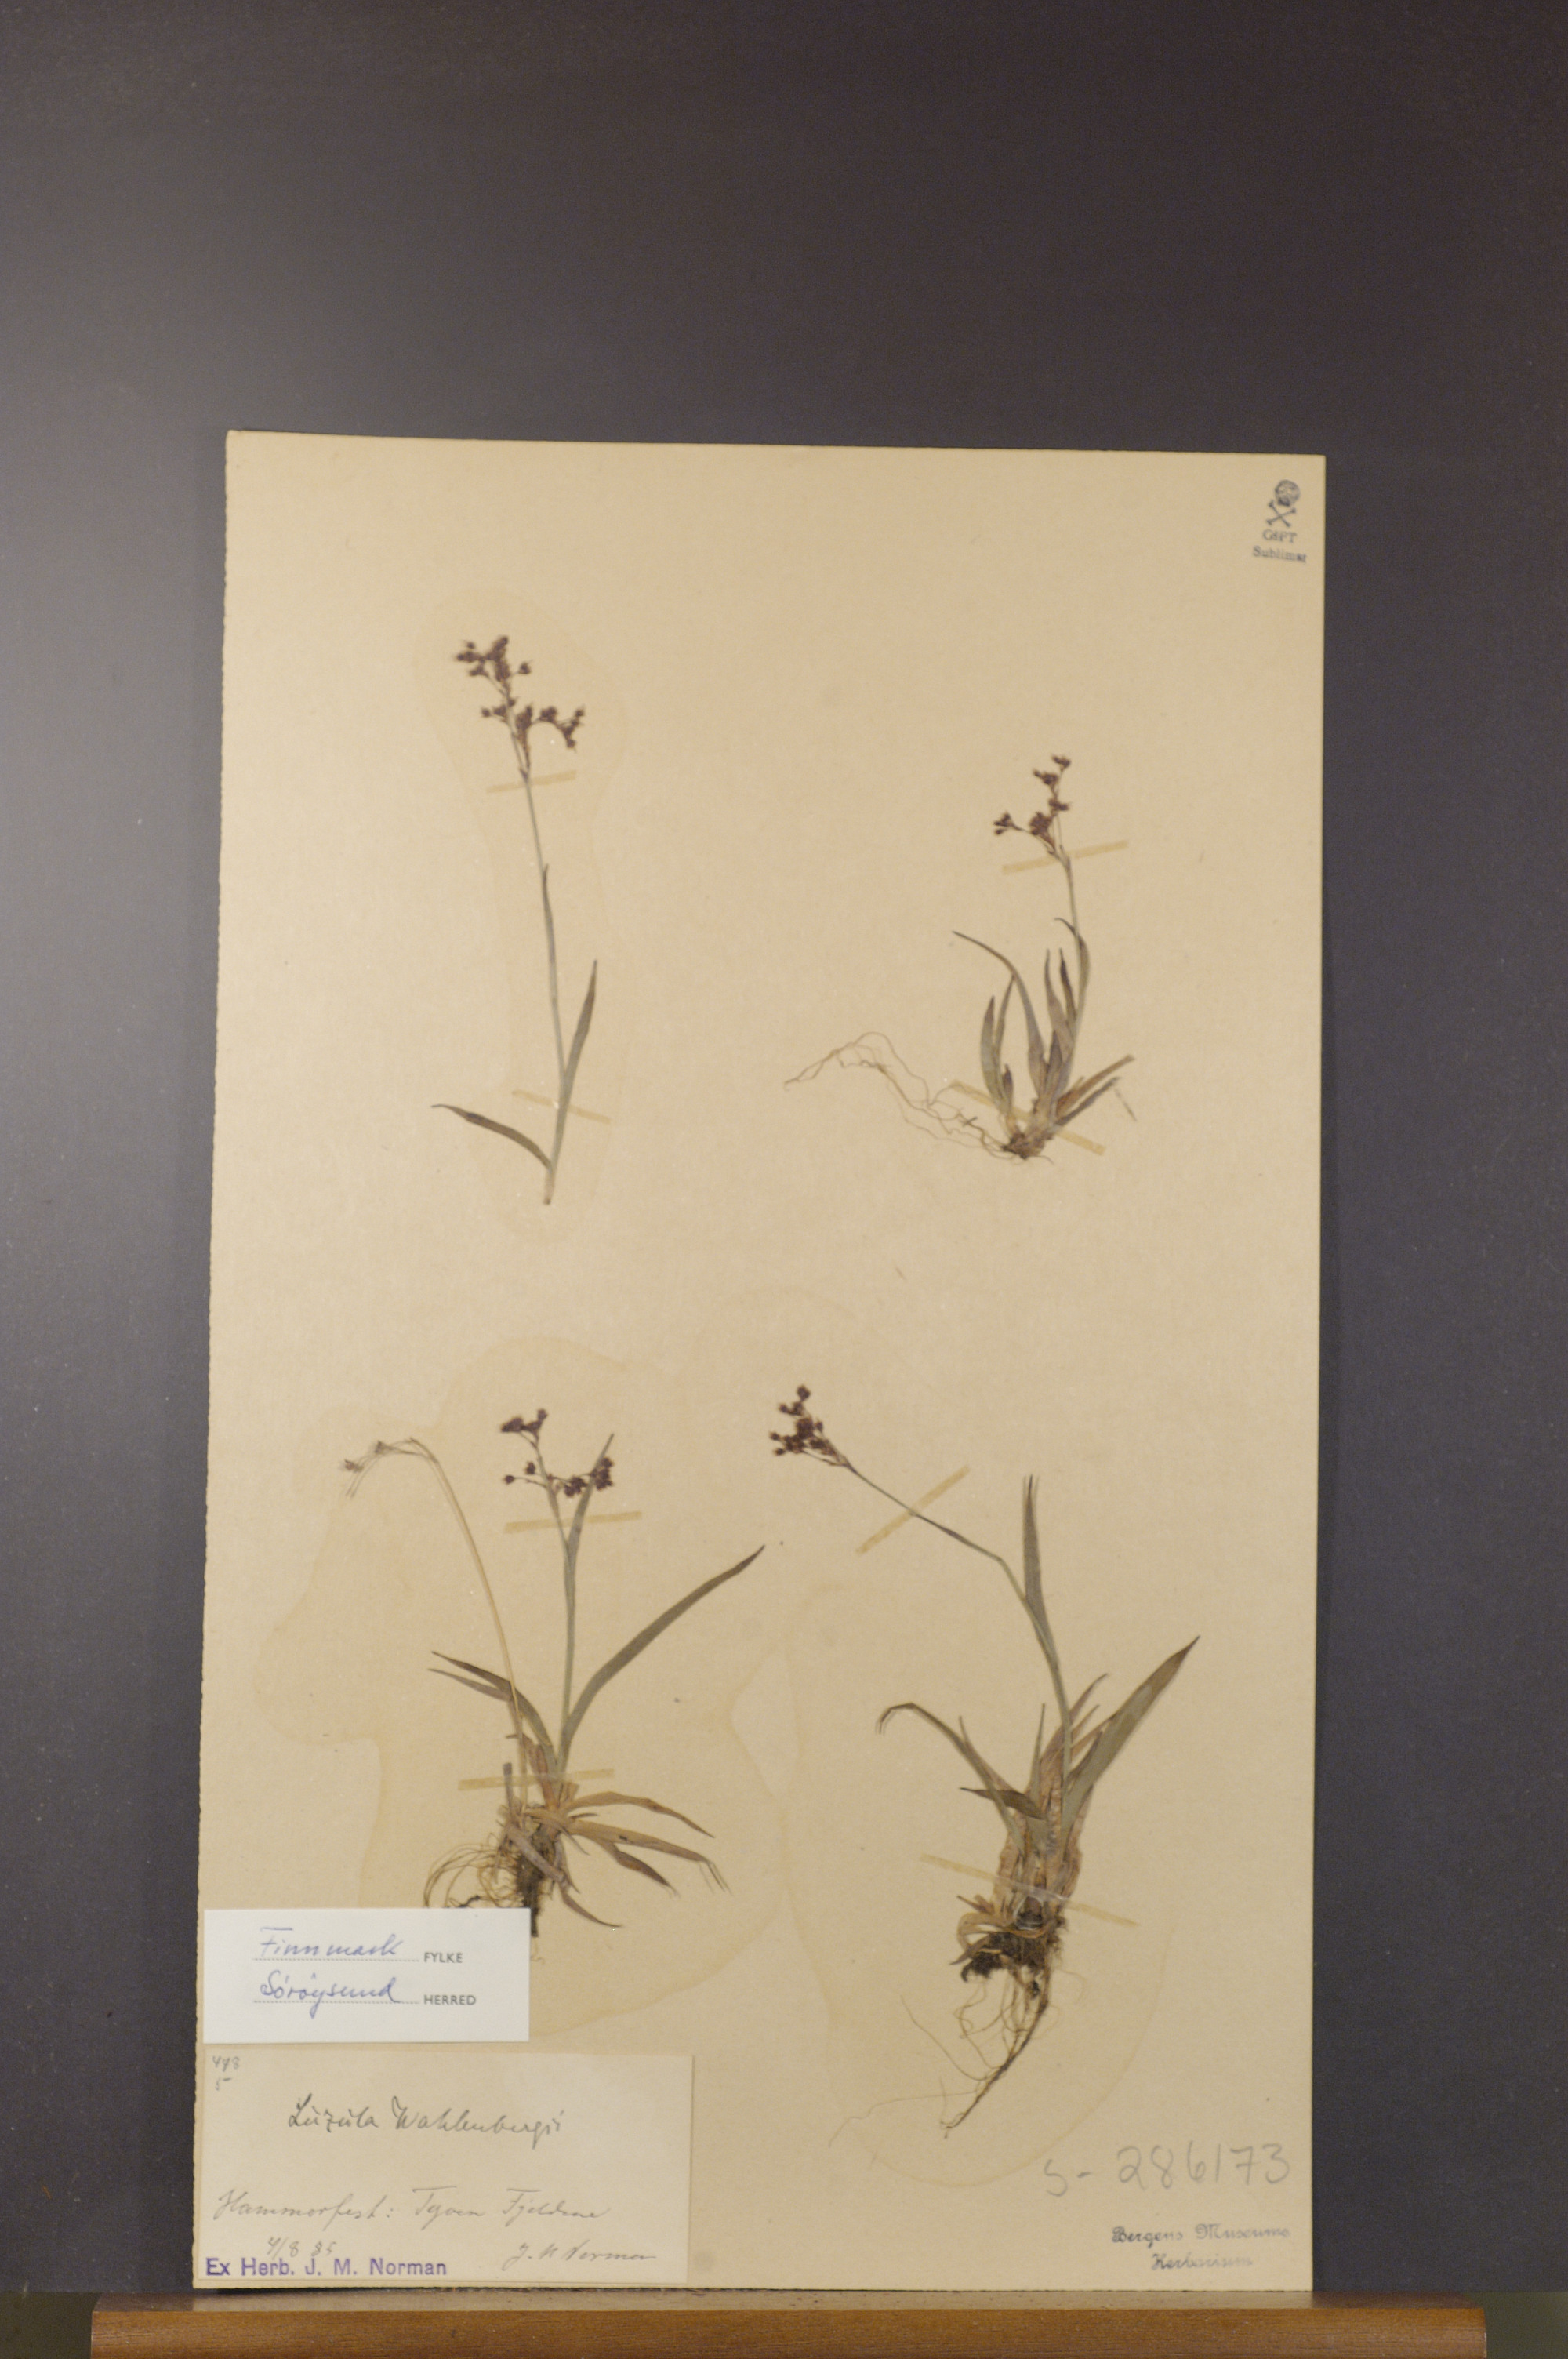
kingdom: Plantae
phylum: Tracheophyta
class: Liliopsida
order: Poales
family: Juncaceae
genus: Luzula
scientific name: Luzula wahlenbergii
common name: Wahlenberg's wood-rush
